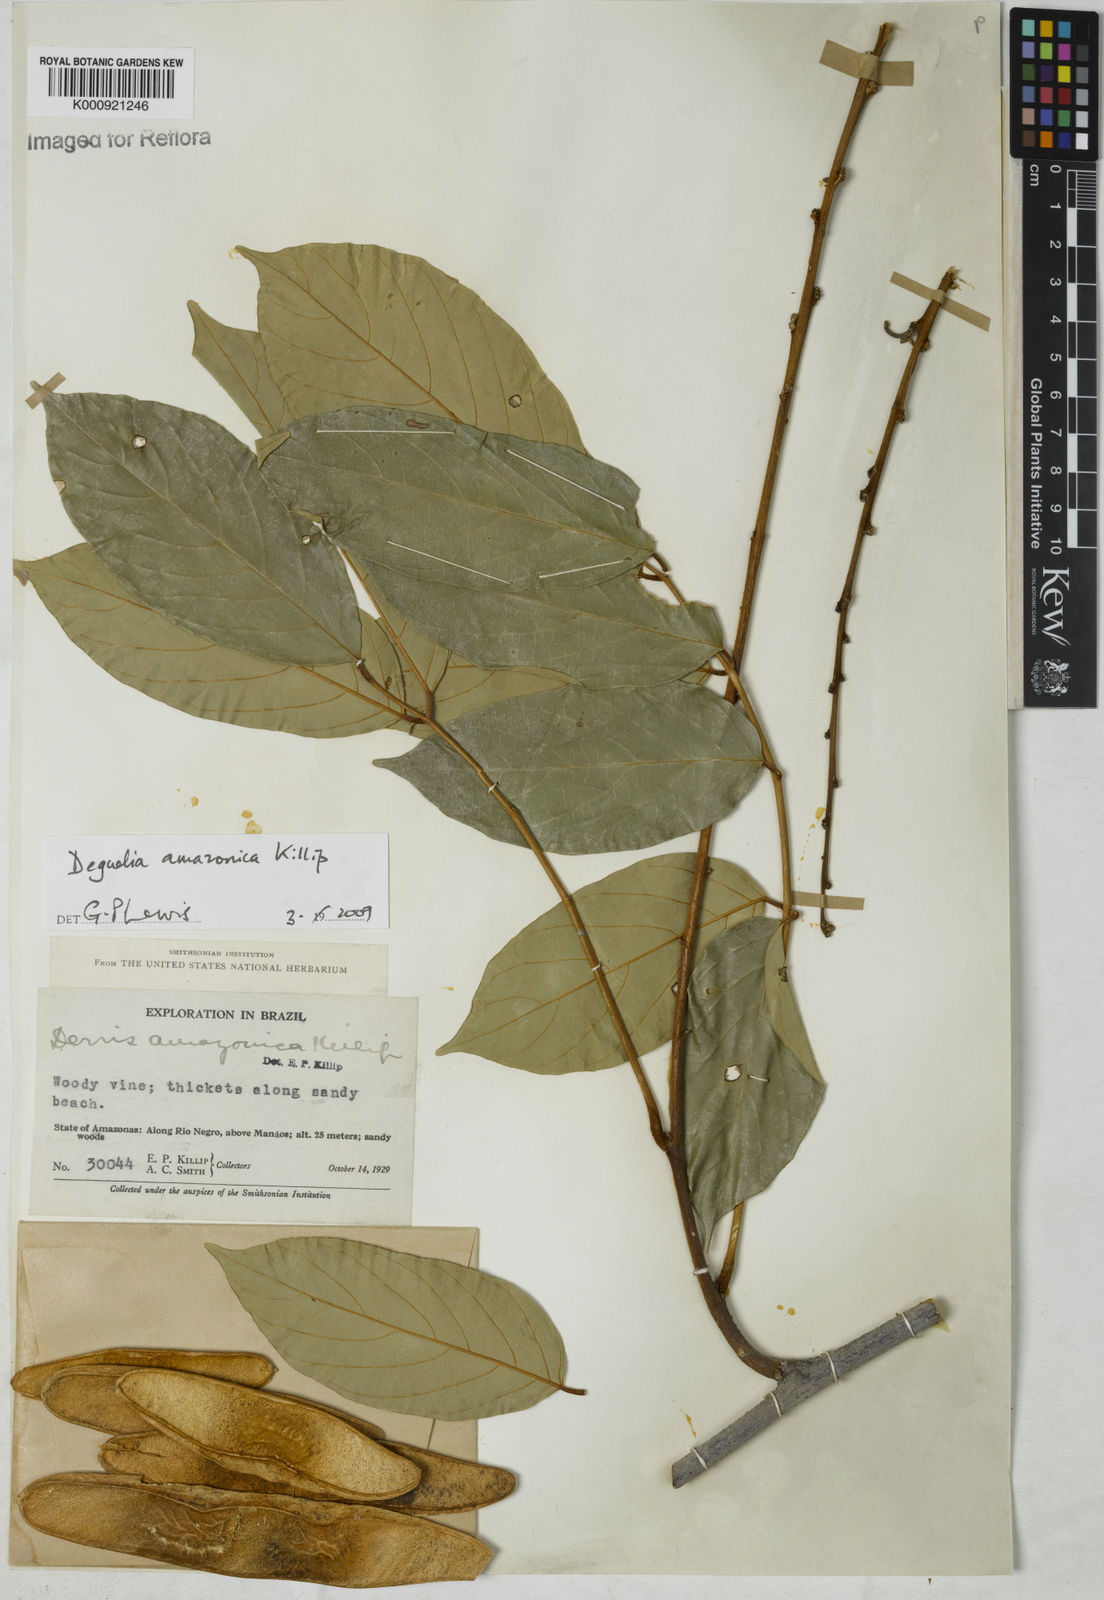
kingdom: Plantae
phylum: Tracheophyta
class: Magnoliopsida
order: Fabales
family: Fabaceae
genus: Deguelia
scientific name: Deguelia amazonica
